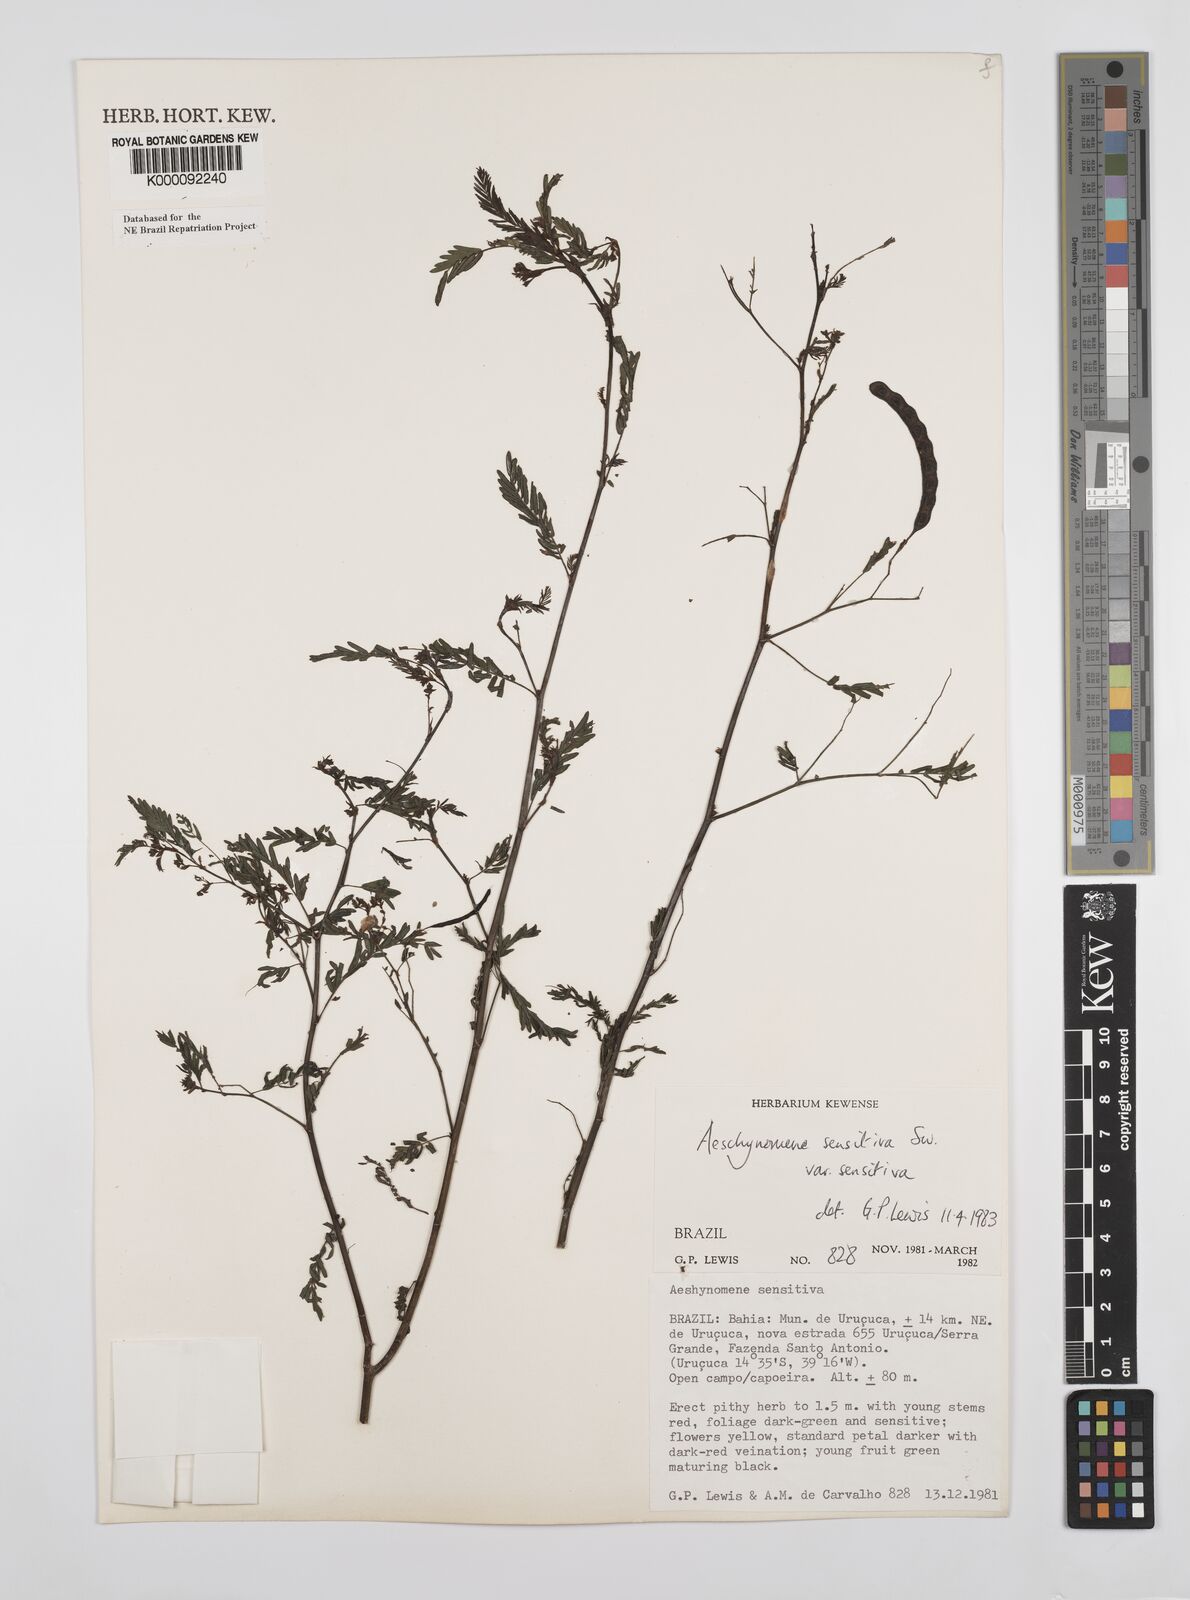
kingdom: Plantae
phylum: Tracheophyta
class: Magnoliopsida
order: Fabales
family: Fabaceae
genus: Aeschynomene
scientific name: Aeschynomene sensitiva
